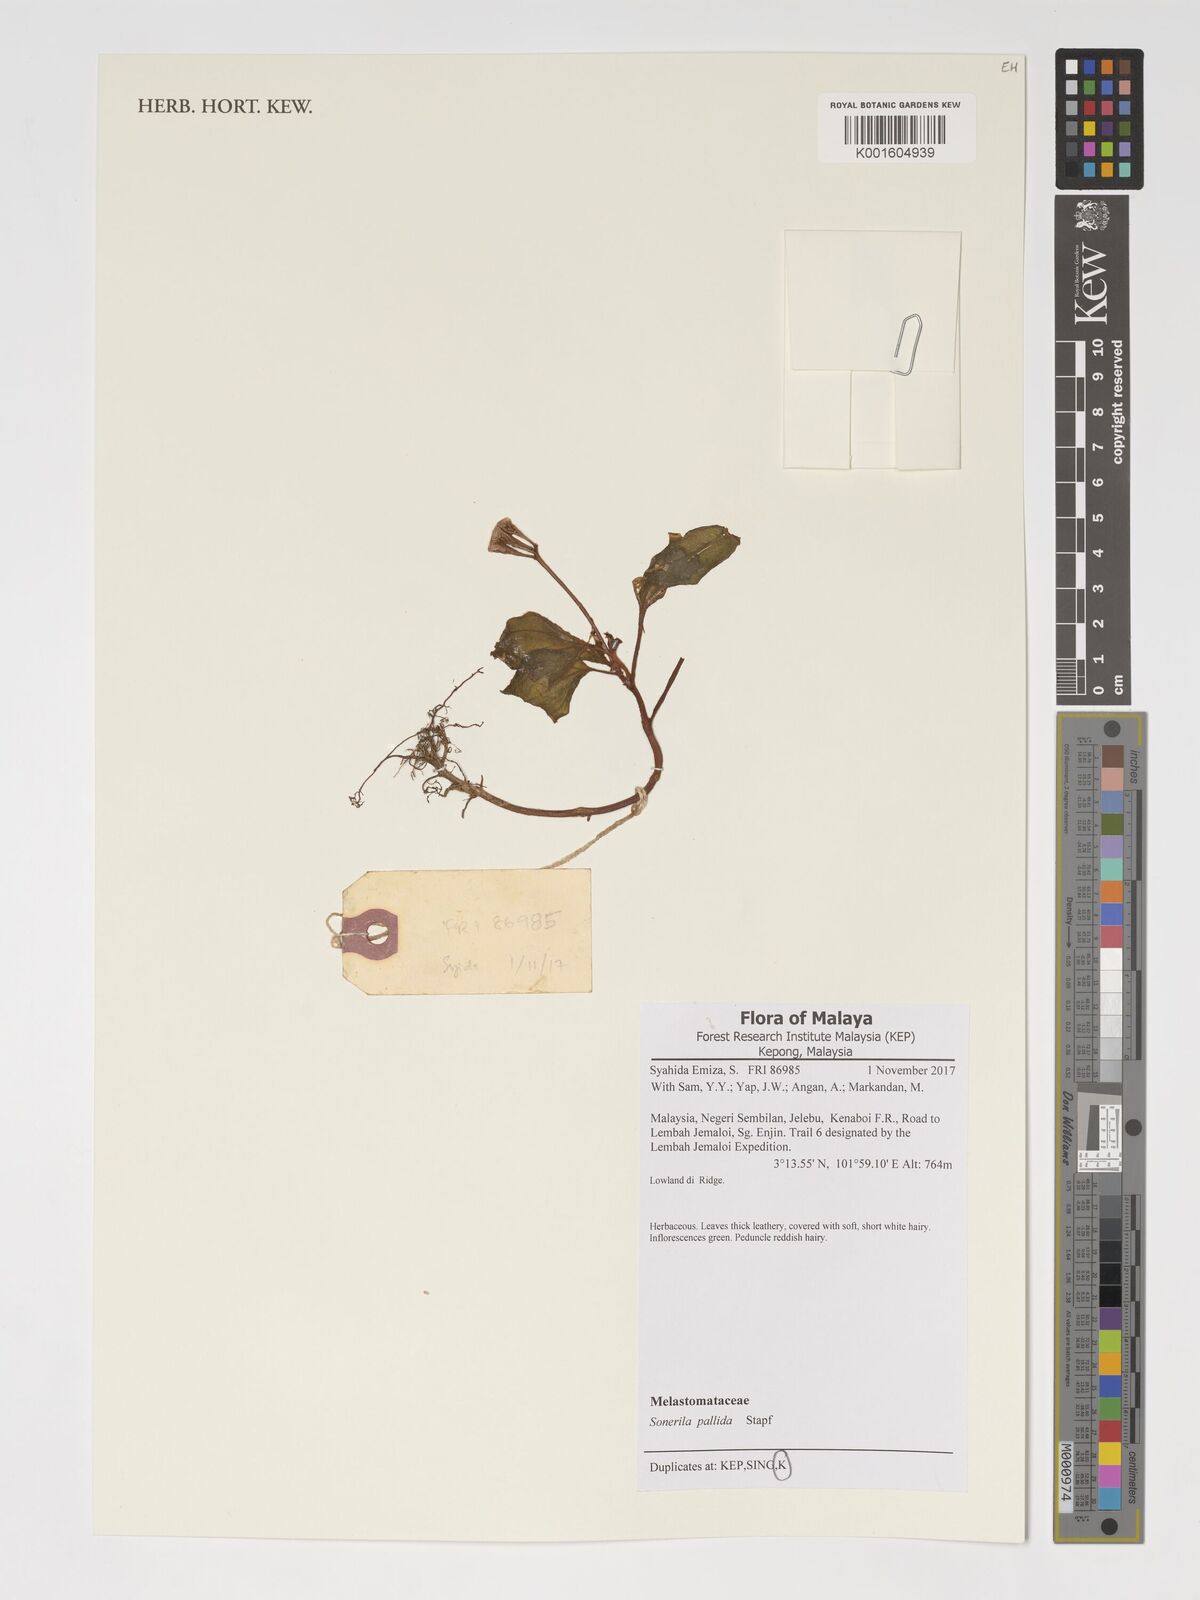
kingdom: Plantae
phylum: Tracheophyta
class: Magnoliopsida
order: Myrtales
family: Melastomataceae
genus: Sonerila
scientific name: Sonerila pallida
